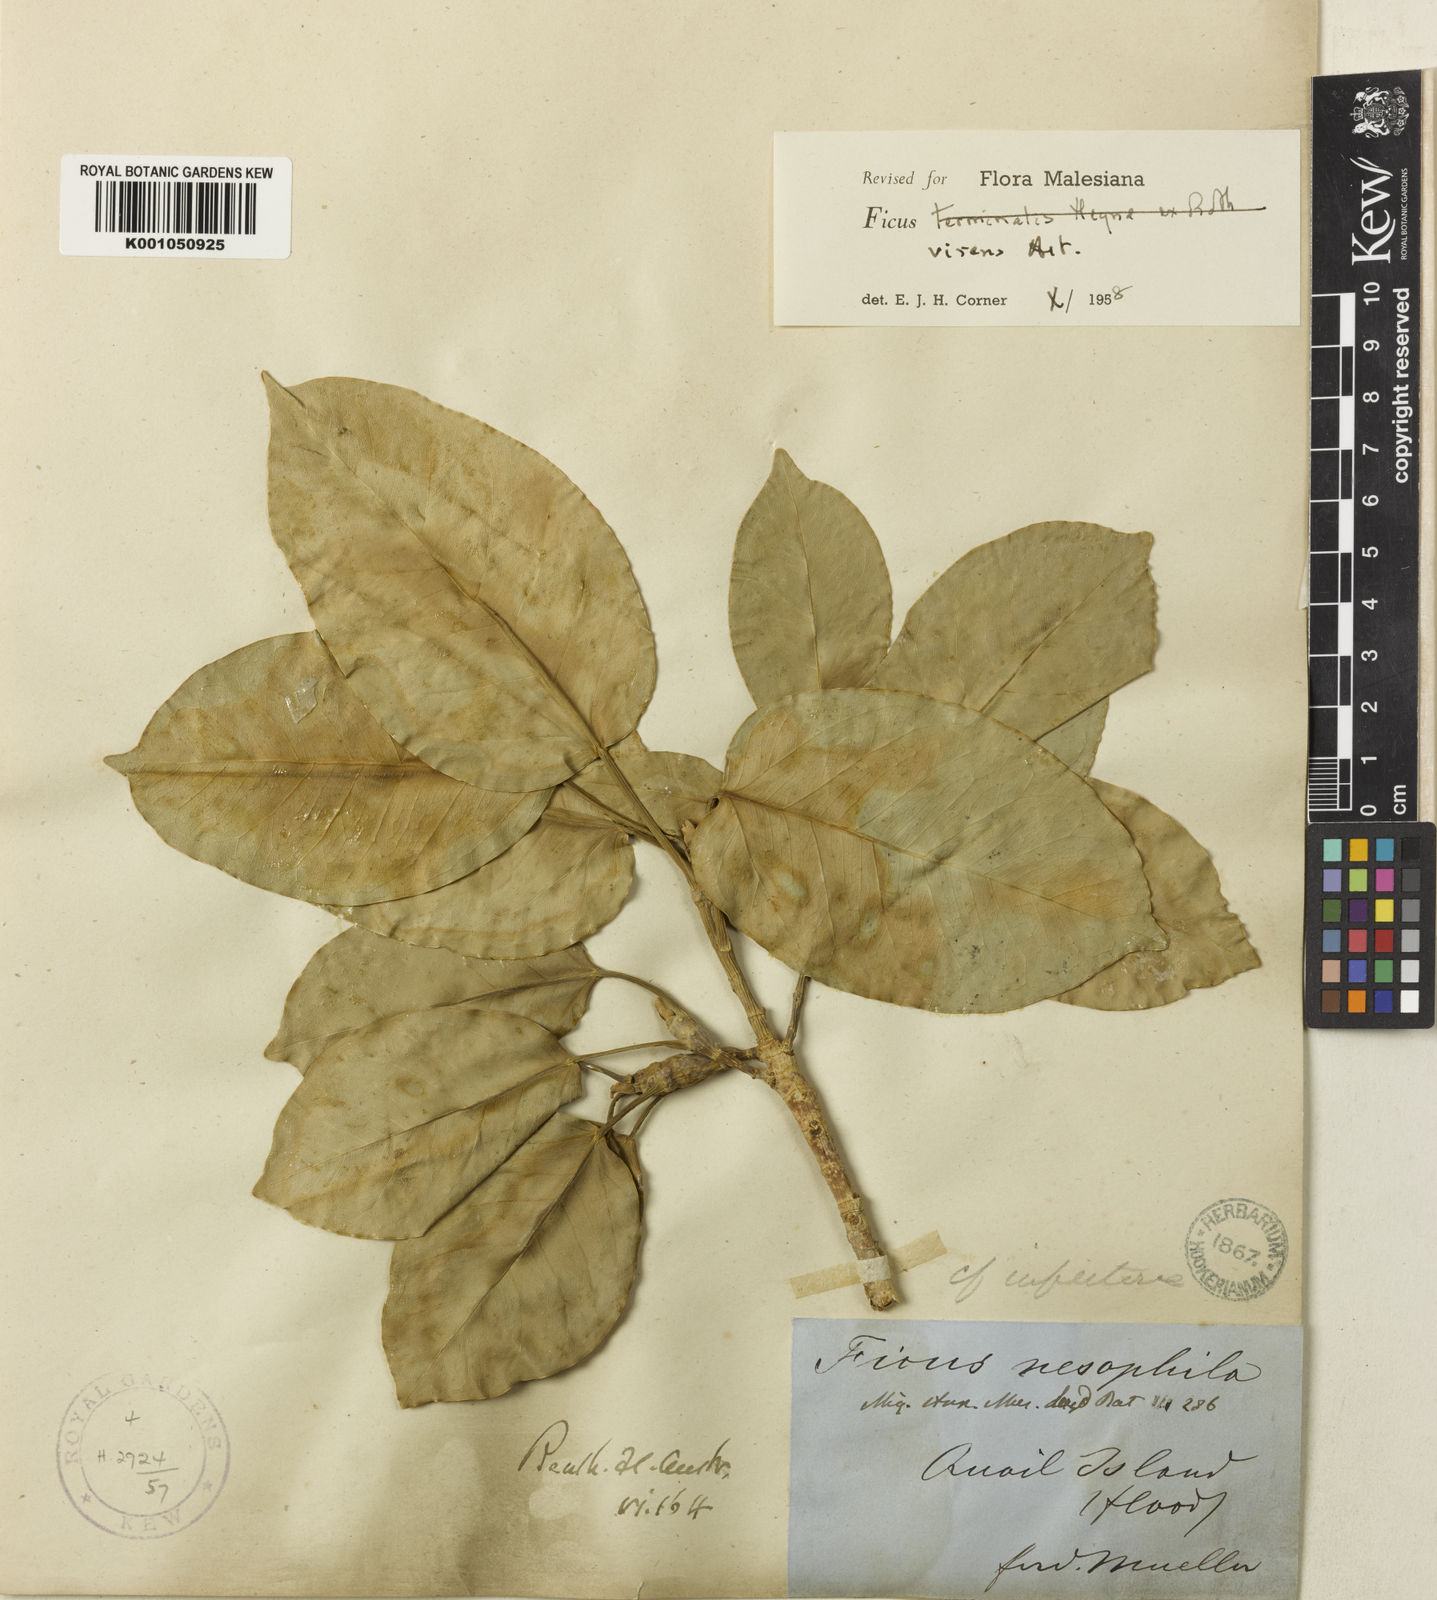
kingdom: Plantae
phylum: Tracheophyta
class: Magnoliopsida
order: Rosales
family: Moraceae
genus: Ficus
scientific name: Ficus virens
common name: Spotted fig
